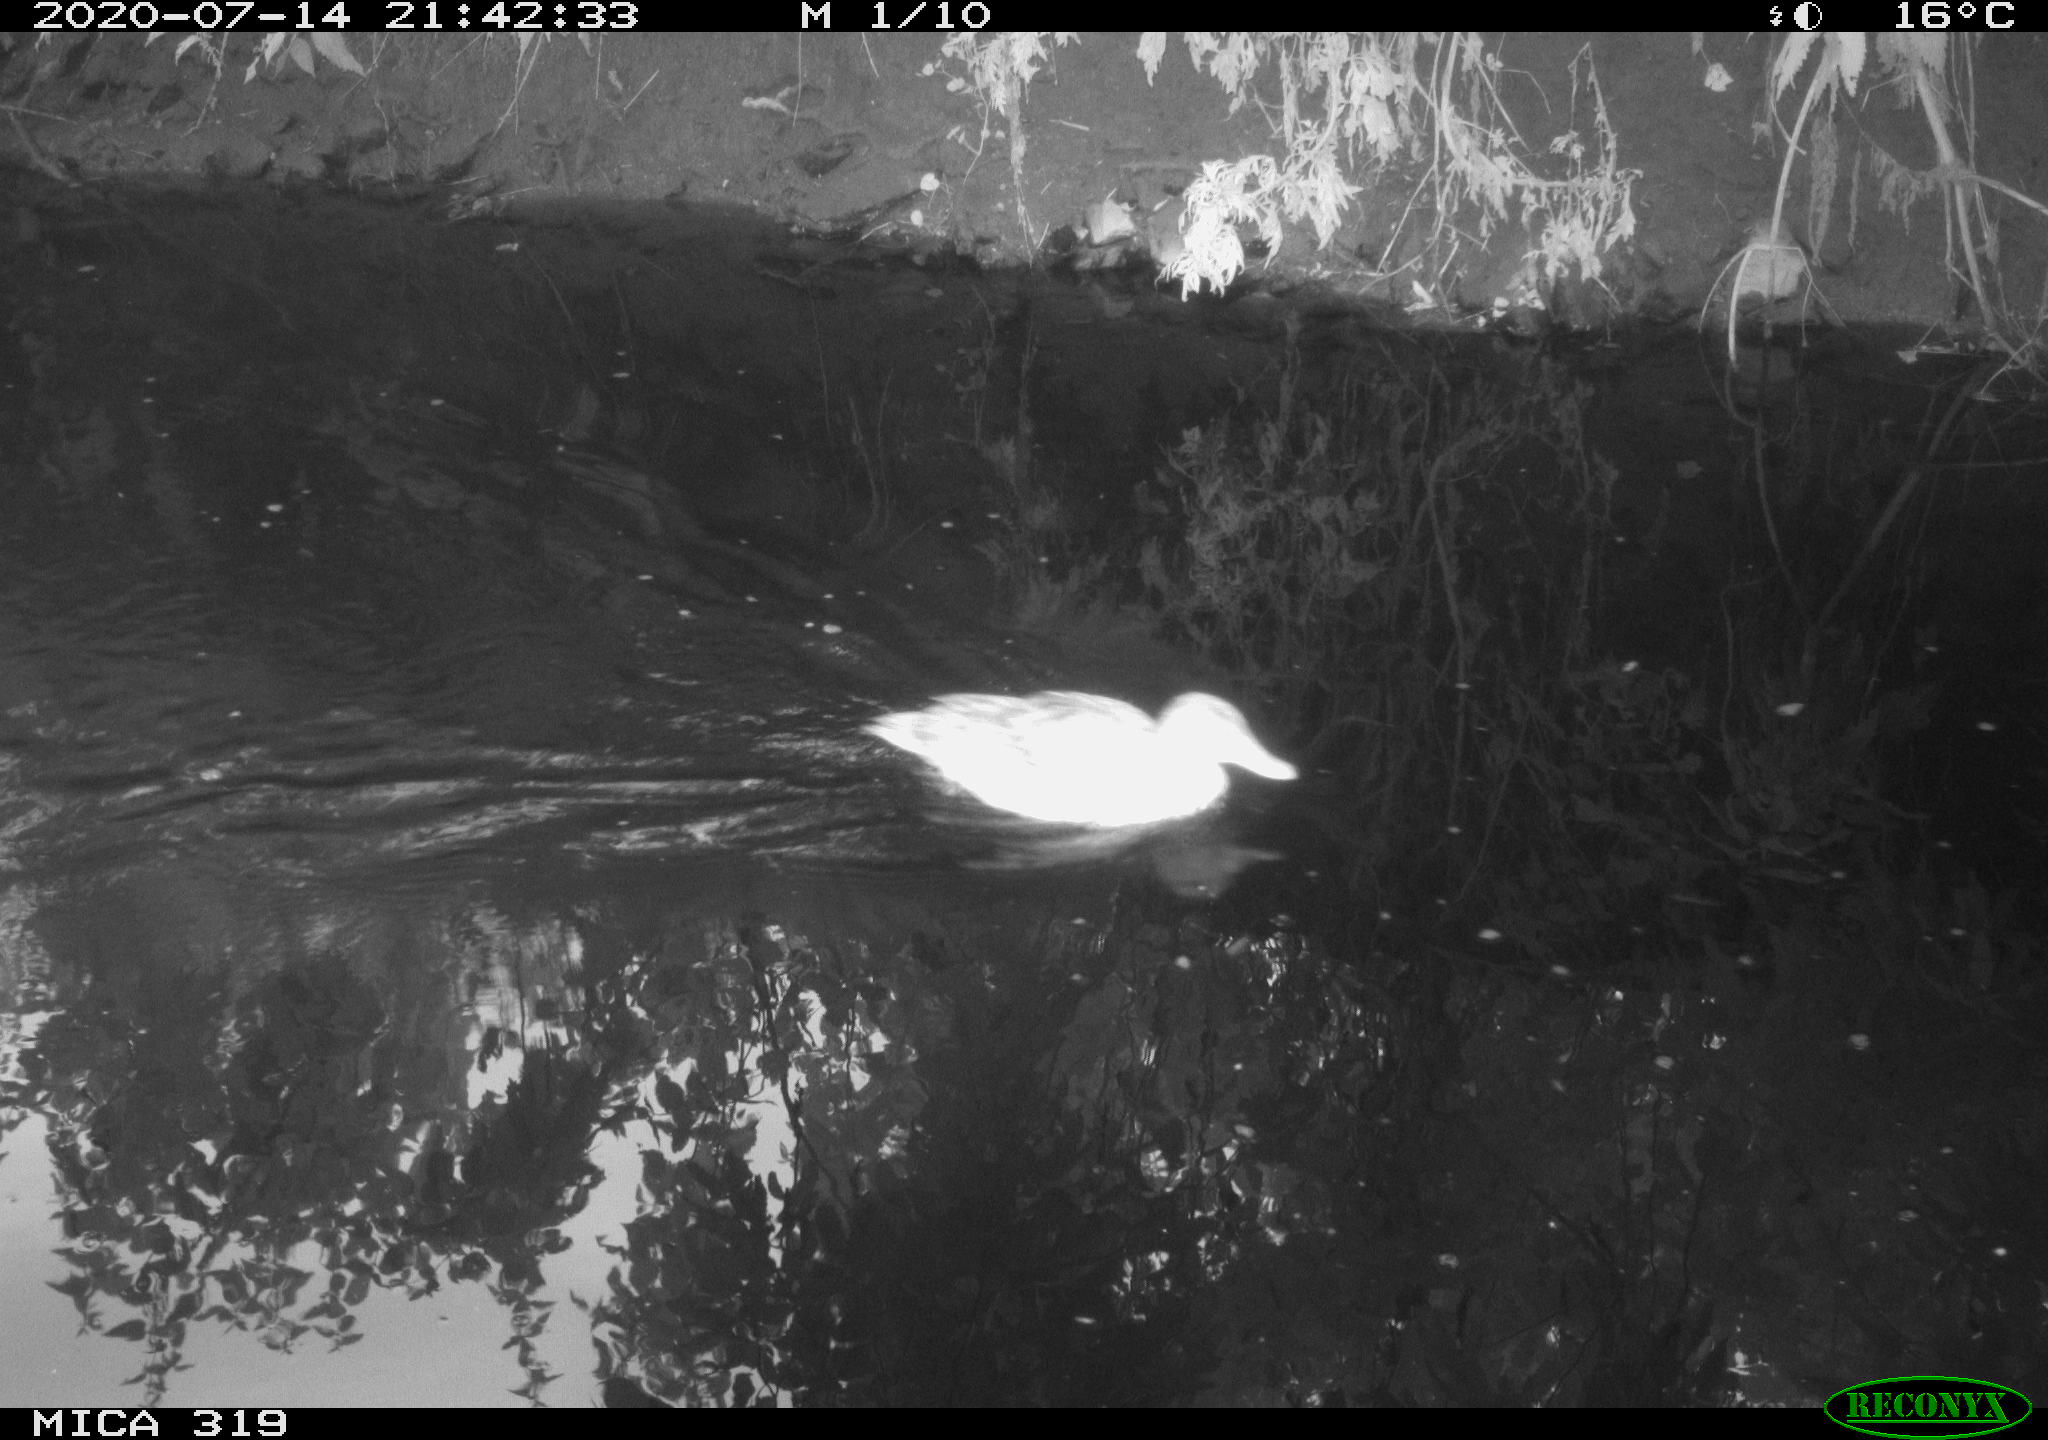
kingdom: Animalia
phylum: Chordata
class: Aves
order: Anseriformes
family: Anatidae
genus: Anas
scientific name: Anas platyrhynchos
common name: Mallard
